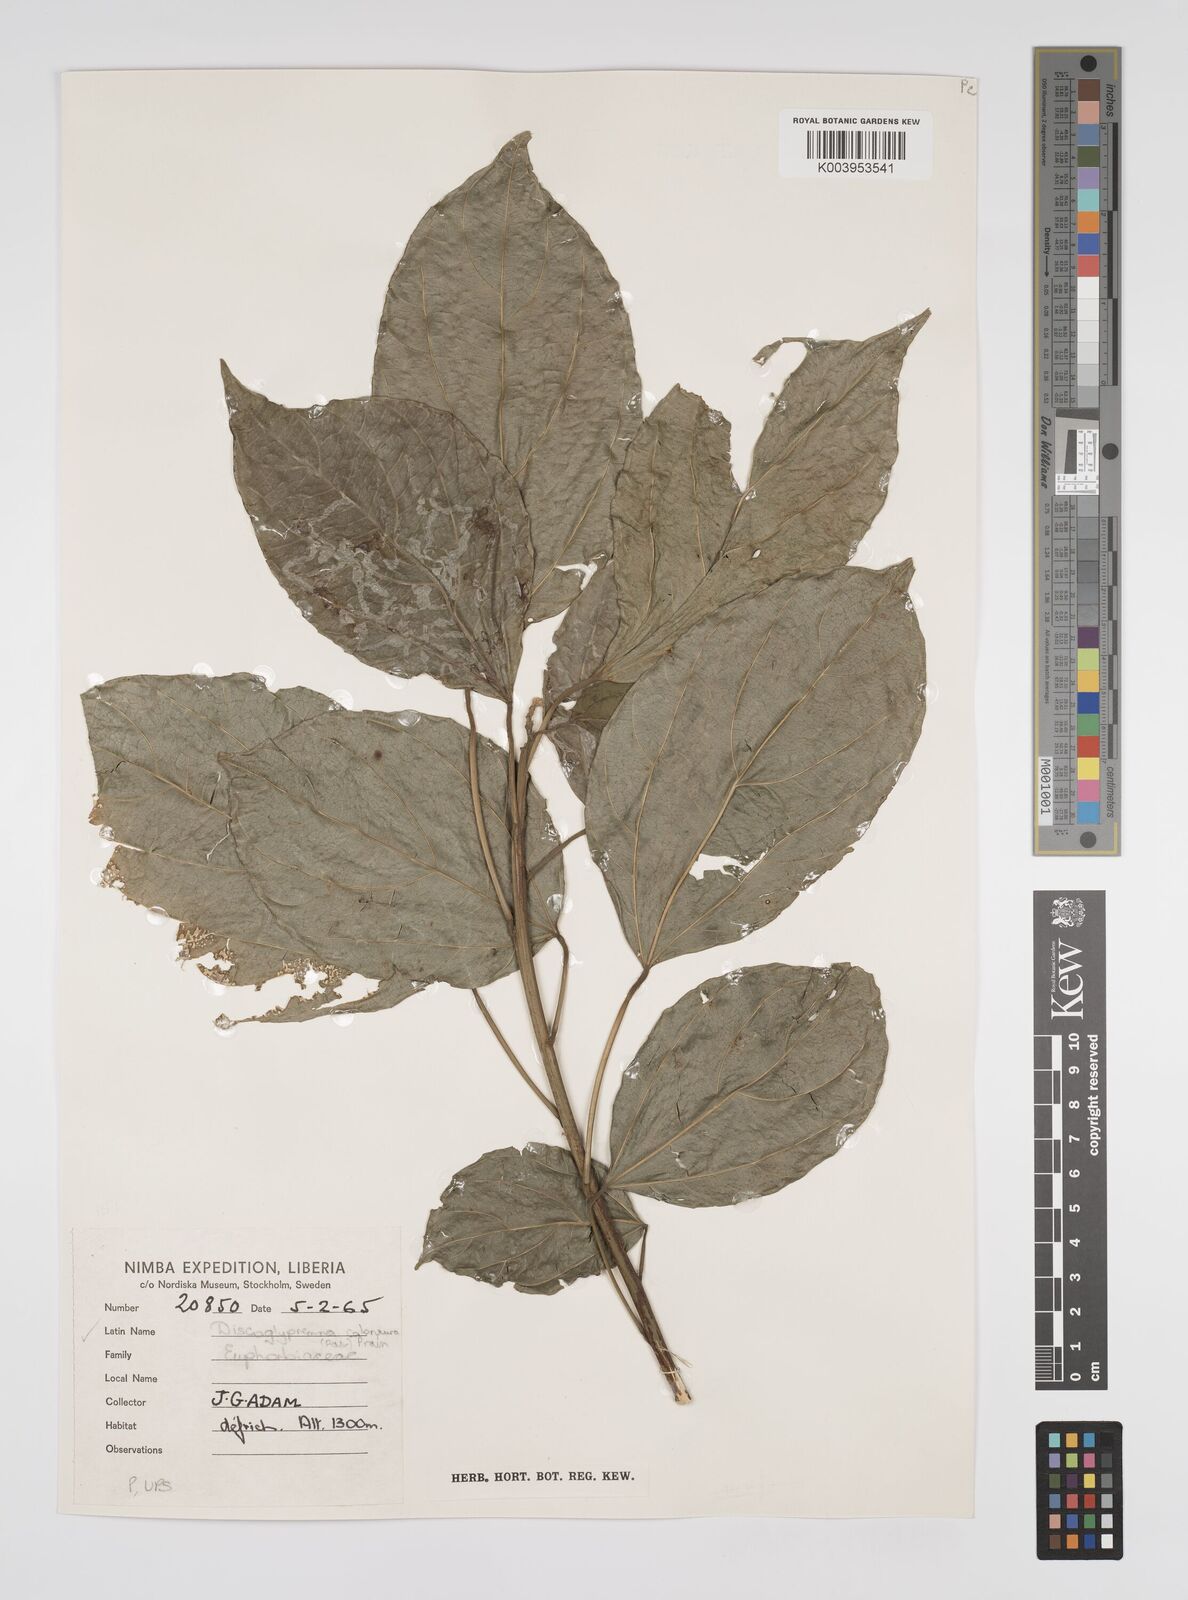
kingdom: Plantae
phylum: Tracheophyta
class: Magnoliopsida
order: Malpighiales
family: Euphorbiaceae
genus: Discoglypremna
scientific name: Discoglypremna caloneura
